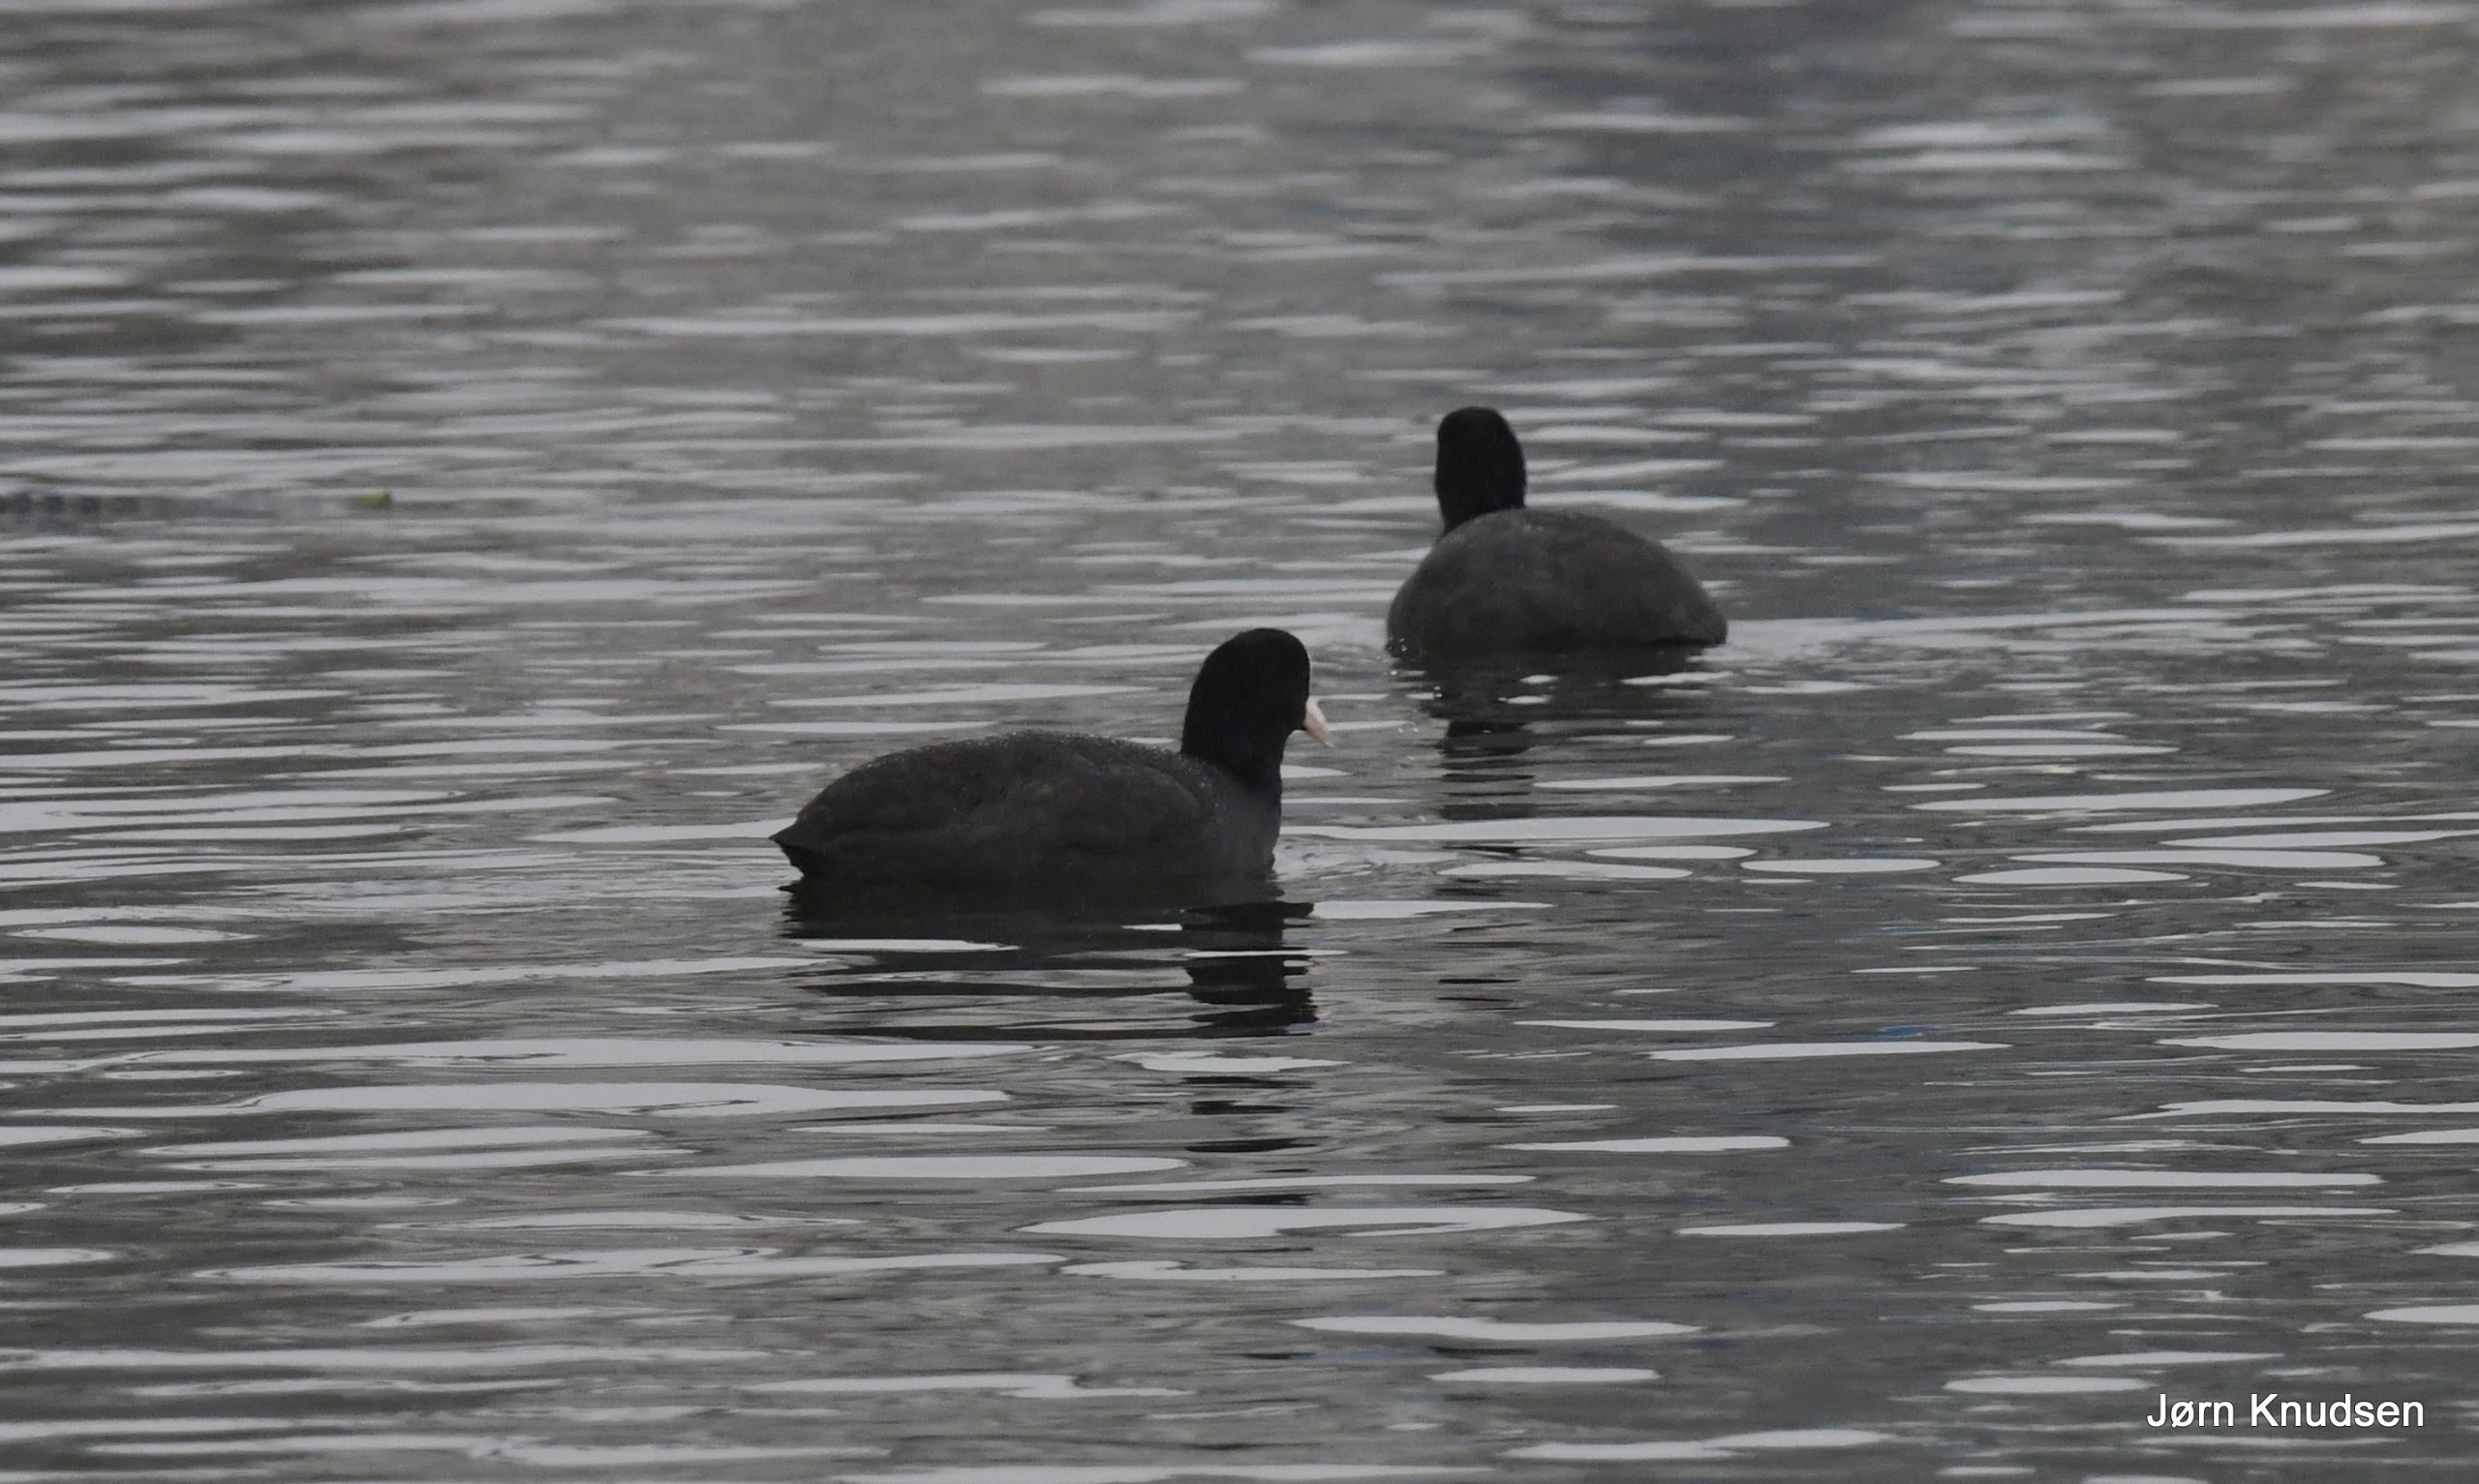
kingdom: Animalia
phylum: Chordata
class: Aves
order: Gruiformes
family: Rallidae
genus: Fulica
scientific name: Fulica atra
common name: Blishøne
